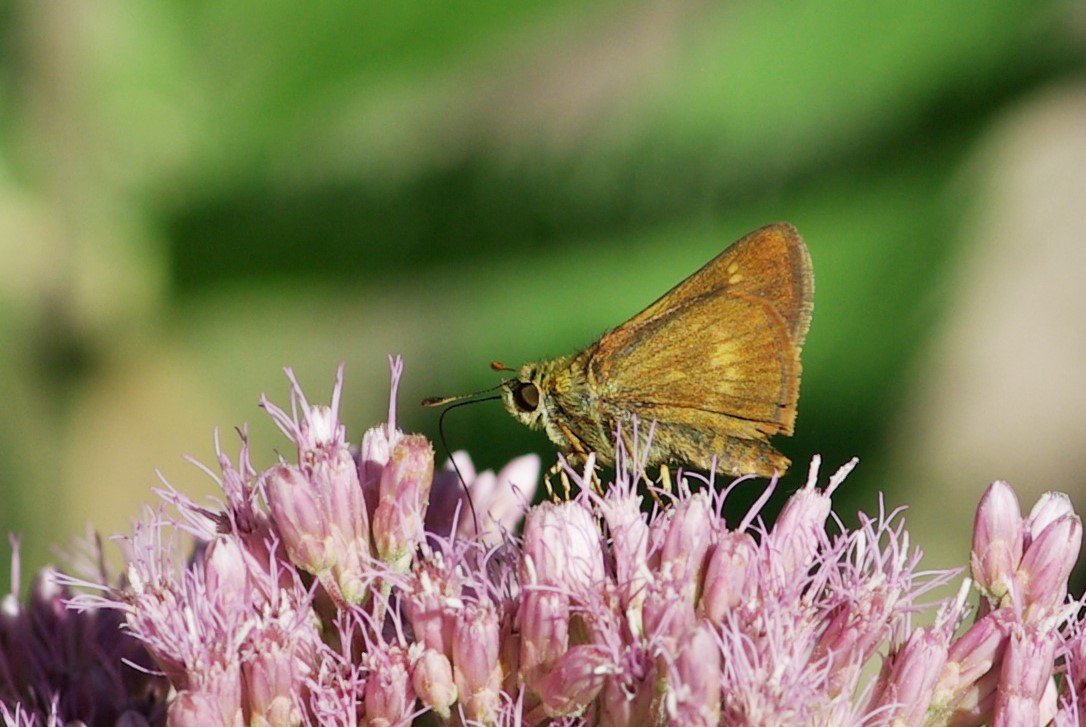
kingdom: Animalia
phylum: Arthropoda
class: Insecta
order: Lepidoptera
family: Hesperiidae
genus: Polites
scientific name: Polites egeremet
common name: Northern Broken-Dash
